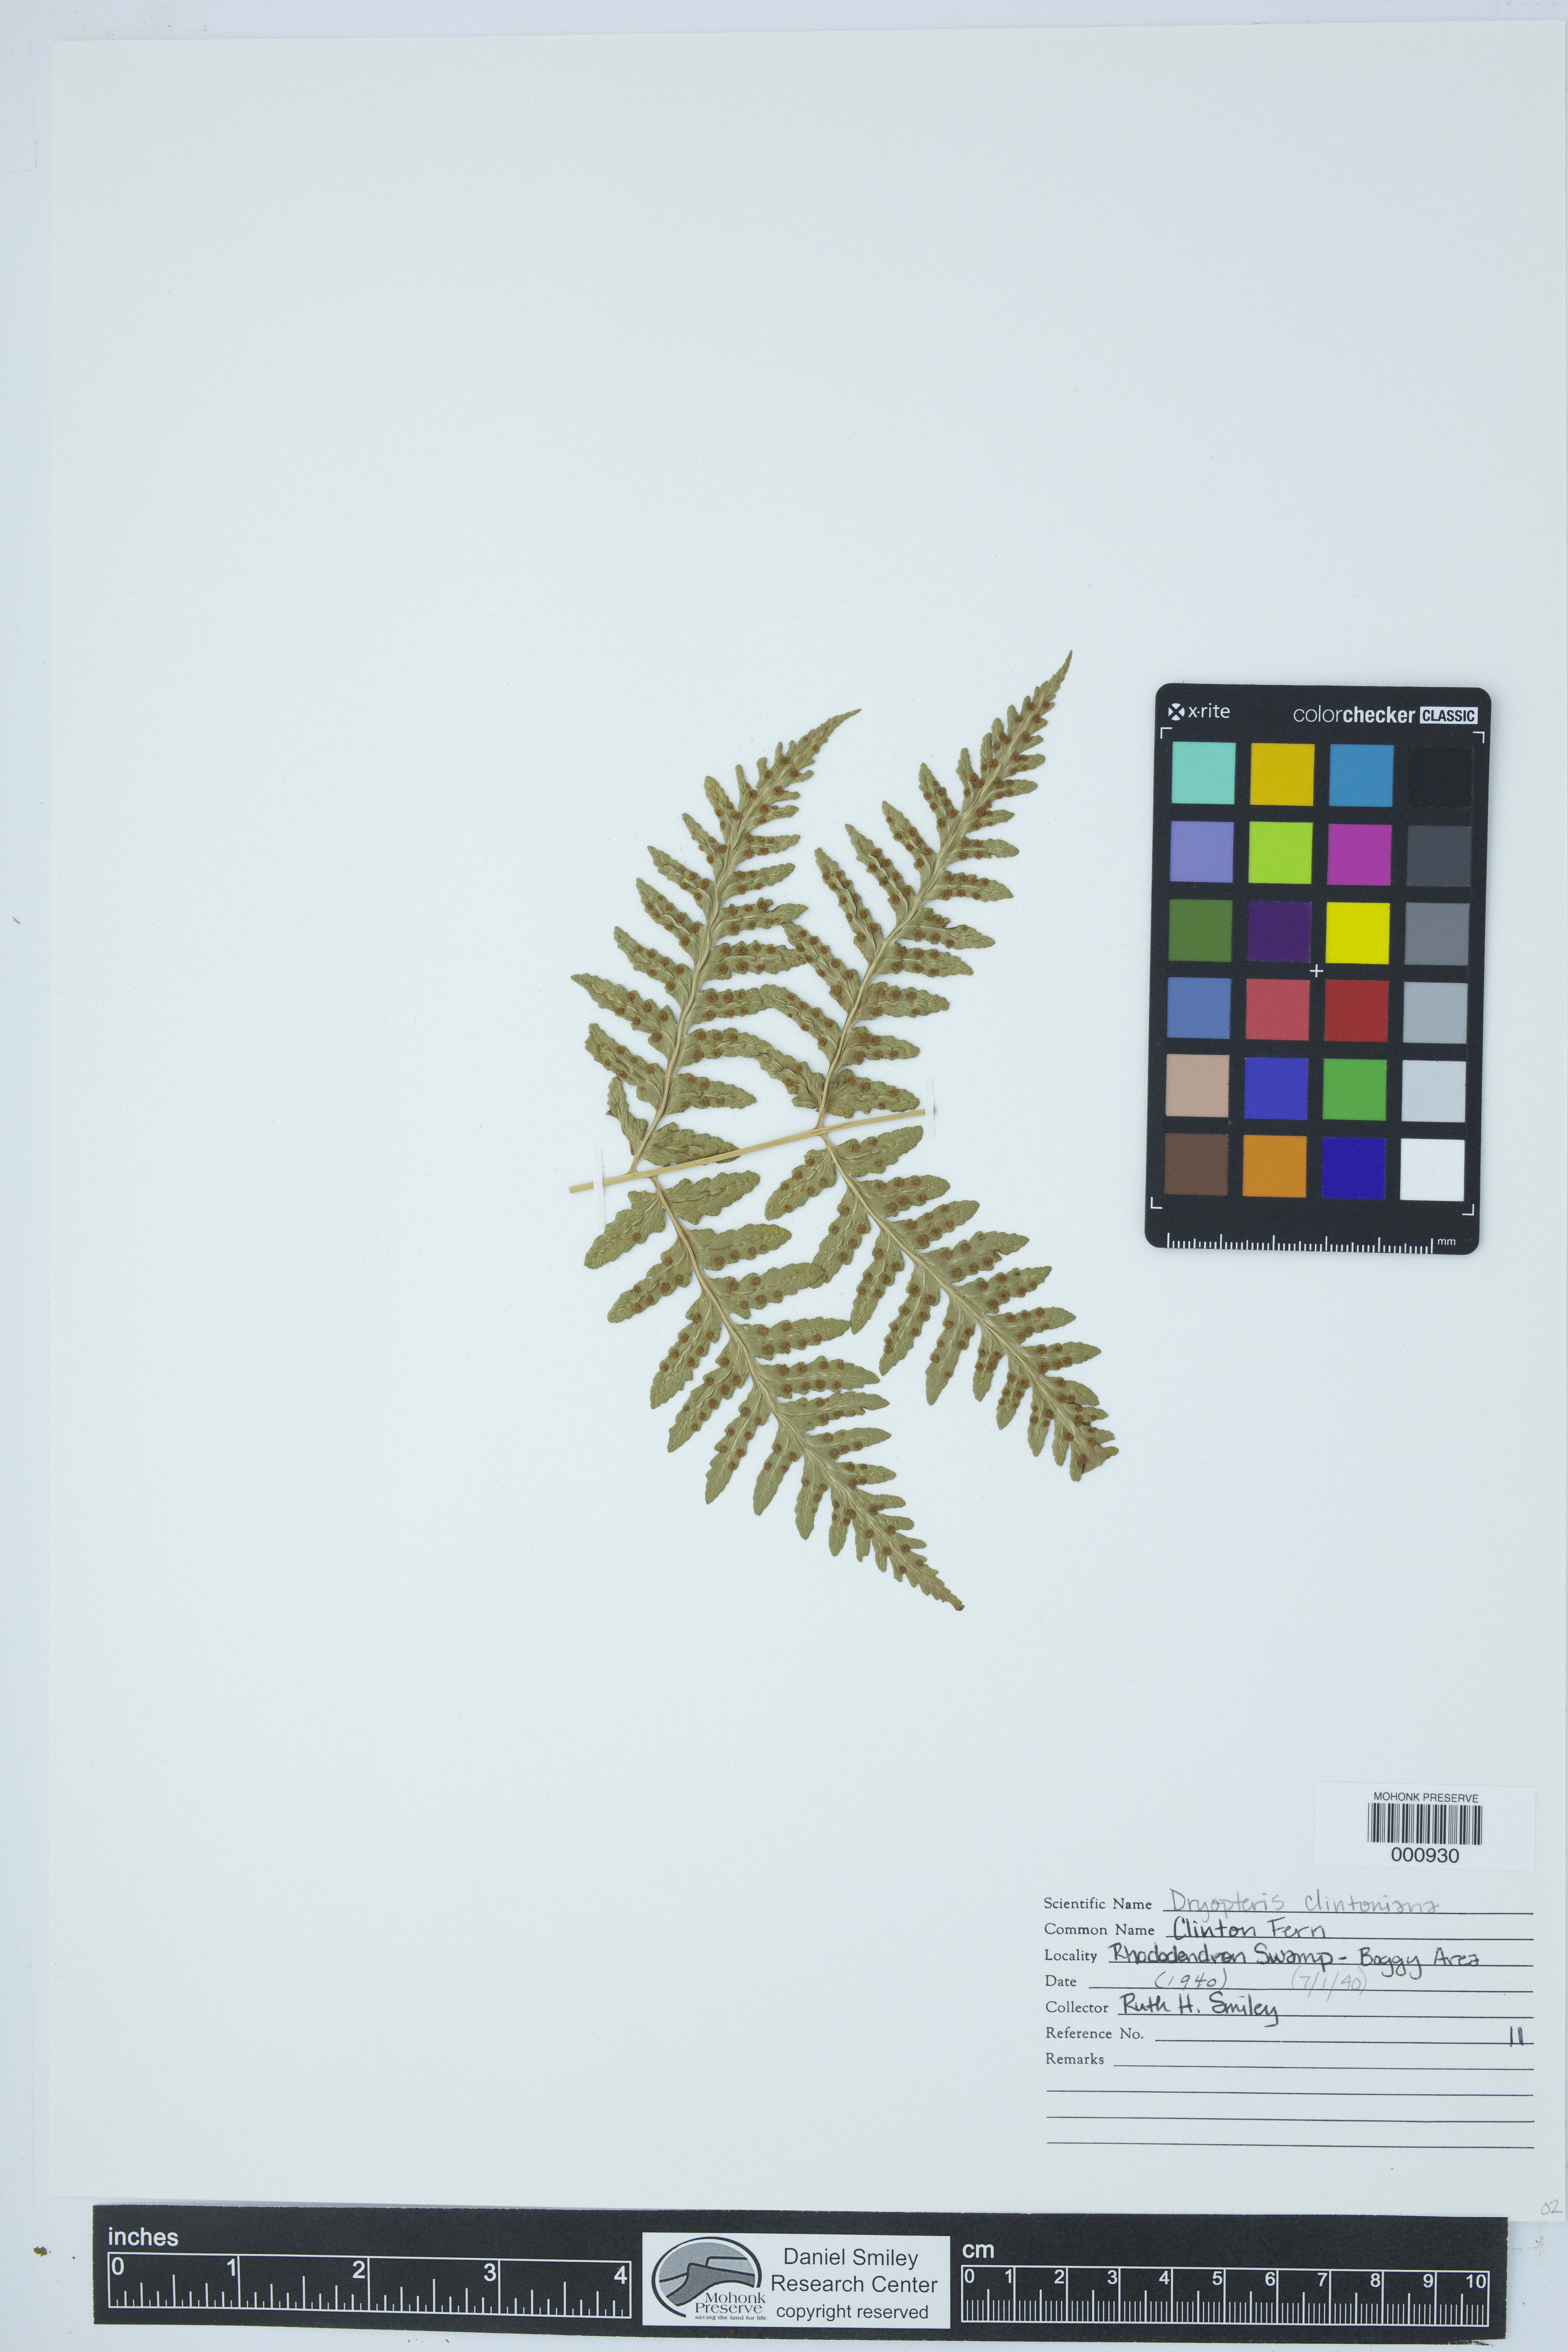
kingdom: Plantae
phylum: Tracheophyta
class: Polypodiopsida
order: Polypodiales
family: Dryopteridaceae
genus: Dryopteris
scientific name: Dryopteris clintoniana
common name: Clinton's wood fern
